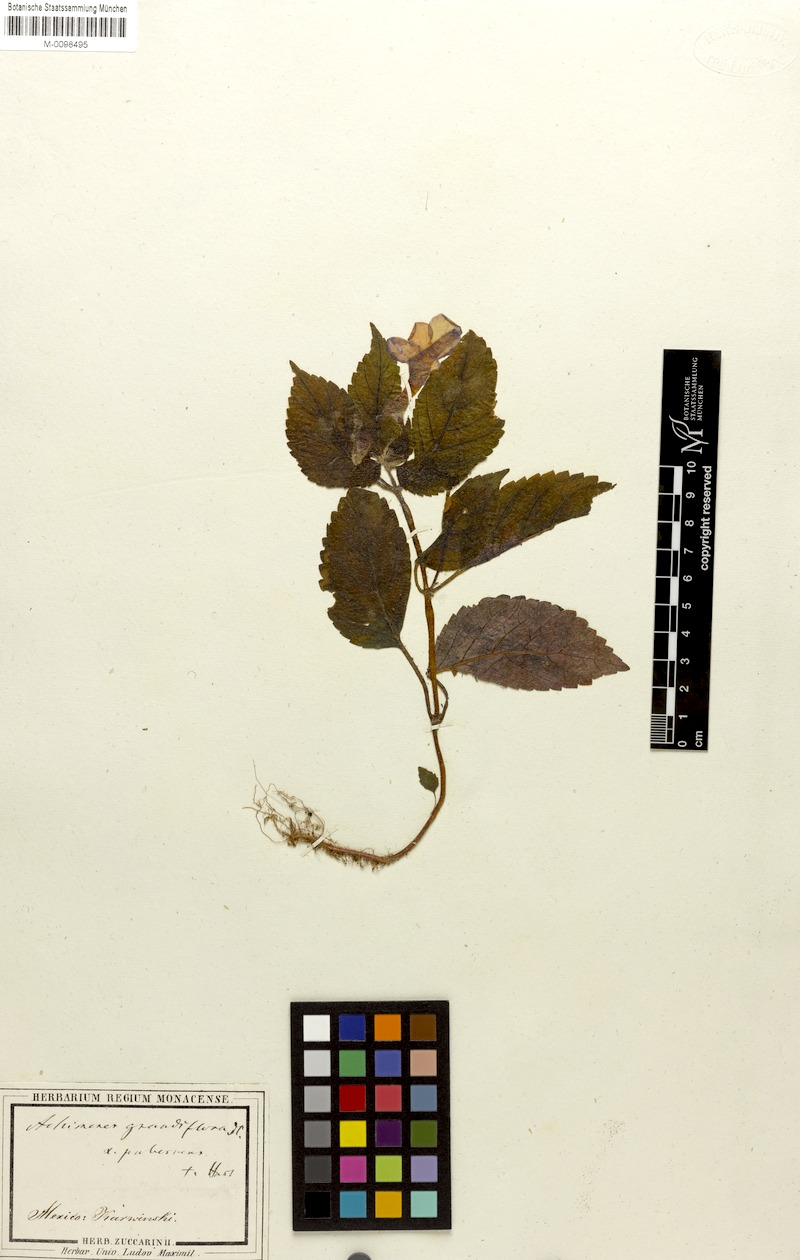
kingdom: Plantae
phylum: Tracheophyta
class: Magnoliopsida
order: Lamiales
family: Gesneriaceae
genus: Achimenes
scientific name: Achimenes grandiflora
